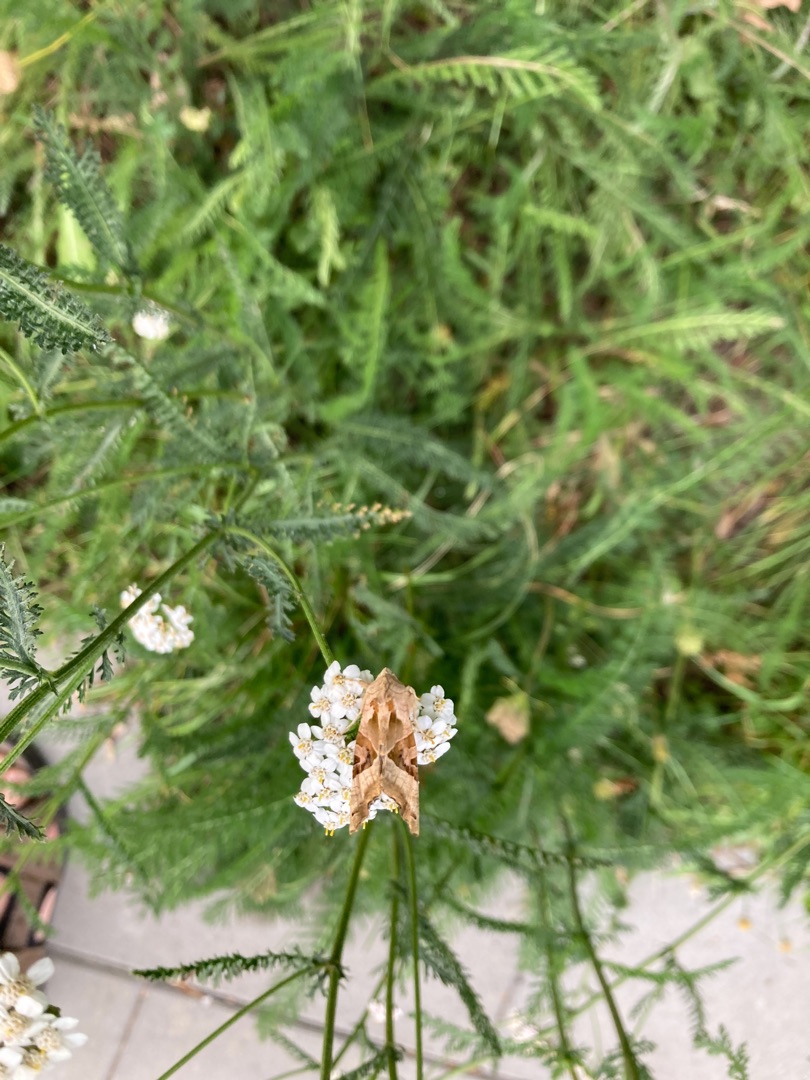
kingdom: Animalia
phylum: Arthropoda
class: Insecta
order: Lepidoptera
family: Noctuidae
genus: Phlogophora
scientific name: Phlogophora meticulosa
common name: Agatugle
